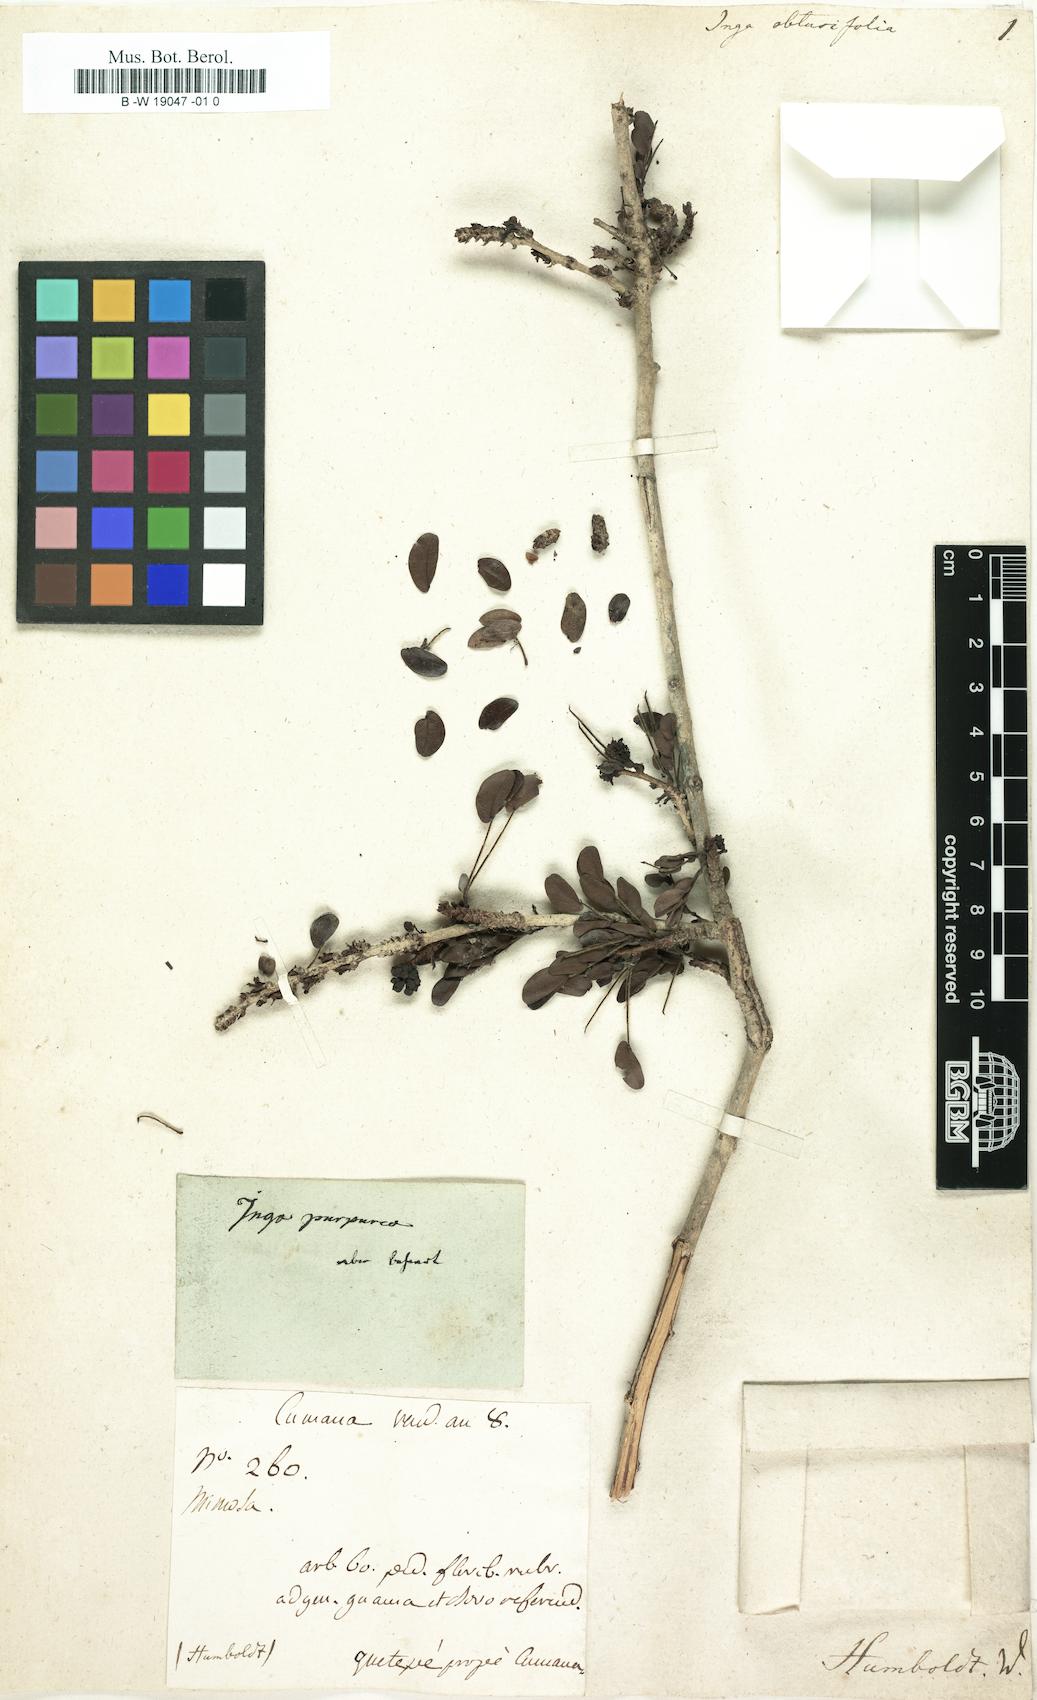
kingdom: Plantae
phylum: Tracheophyta
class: Magnoliopsida
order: Fabales
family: Fabaceae
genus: Calliandra
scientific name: Calliandra purpurea
